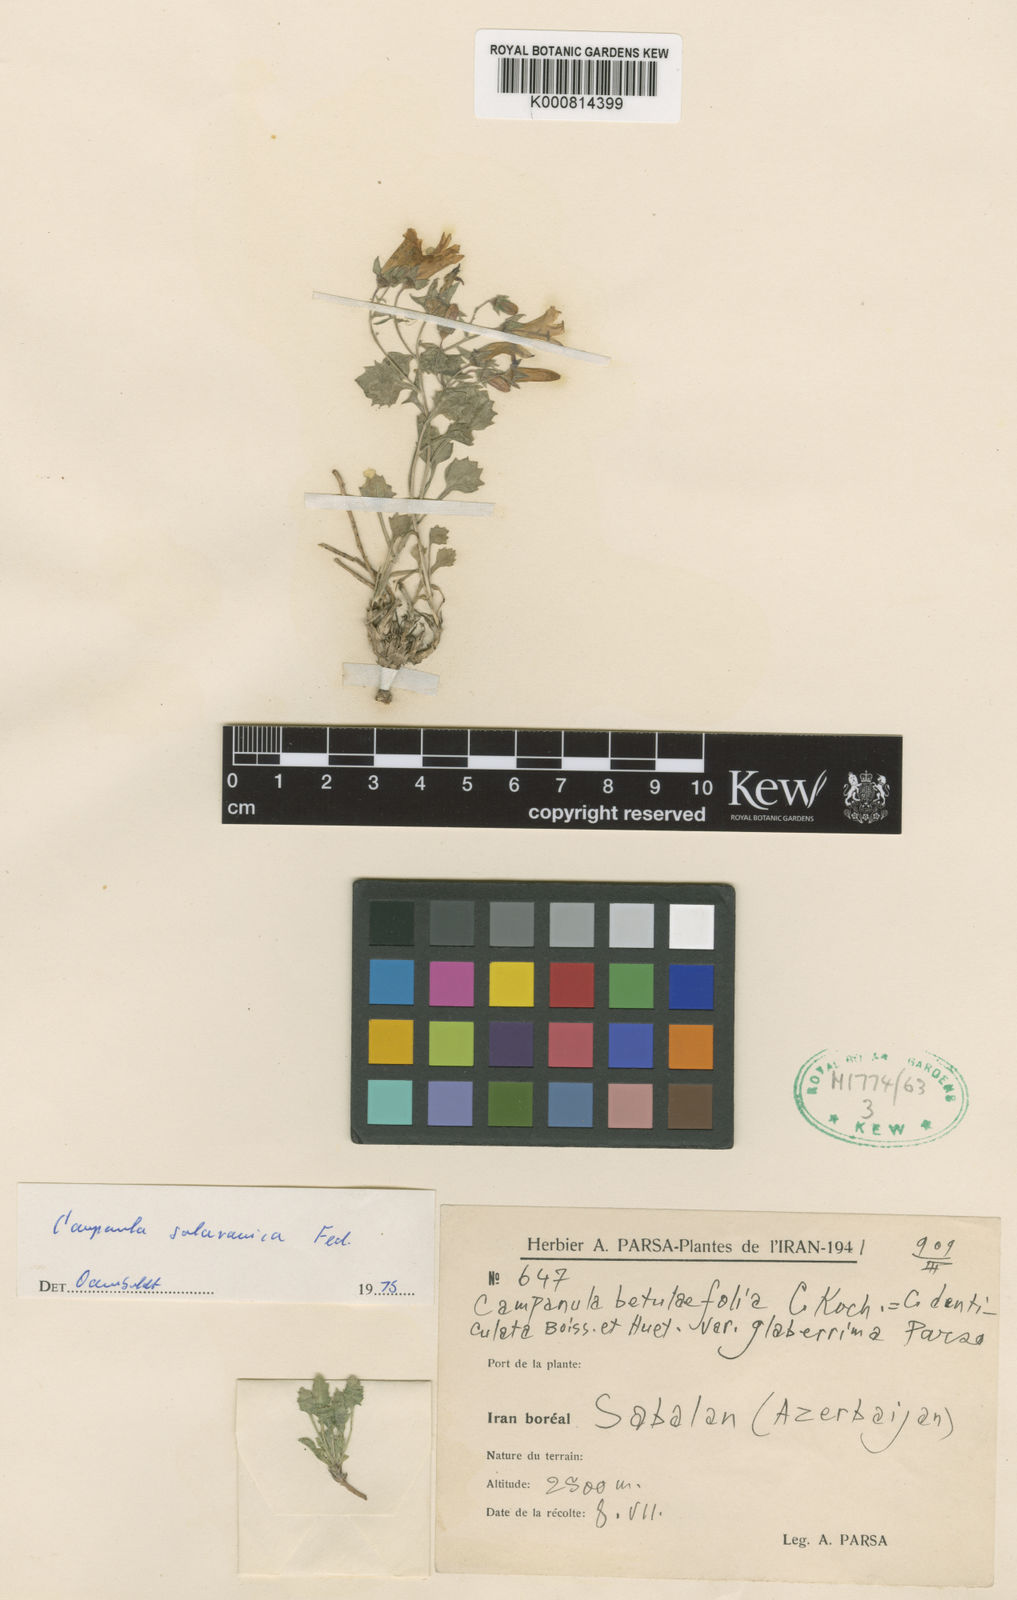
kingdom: Plantae
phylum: Tracheophyta
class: Magnoliopsida
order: Asterales
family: Campanulaceae
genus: Campanula
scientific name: Campanula betulifolia
